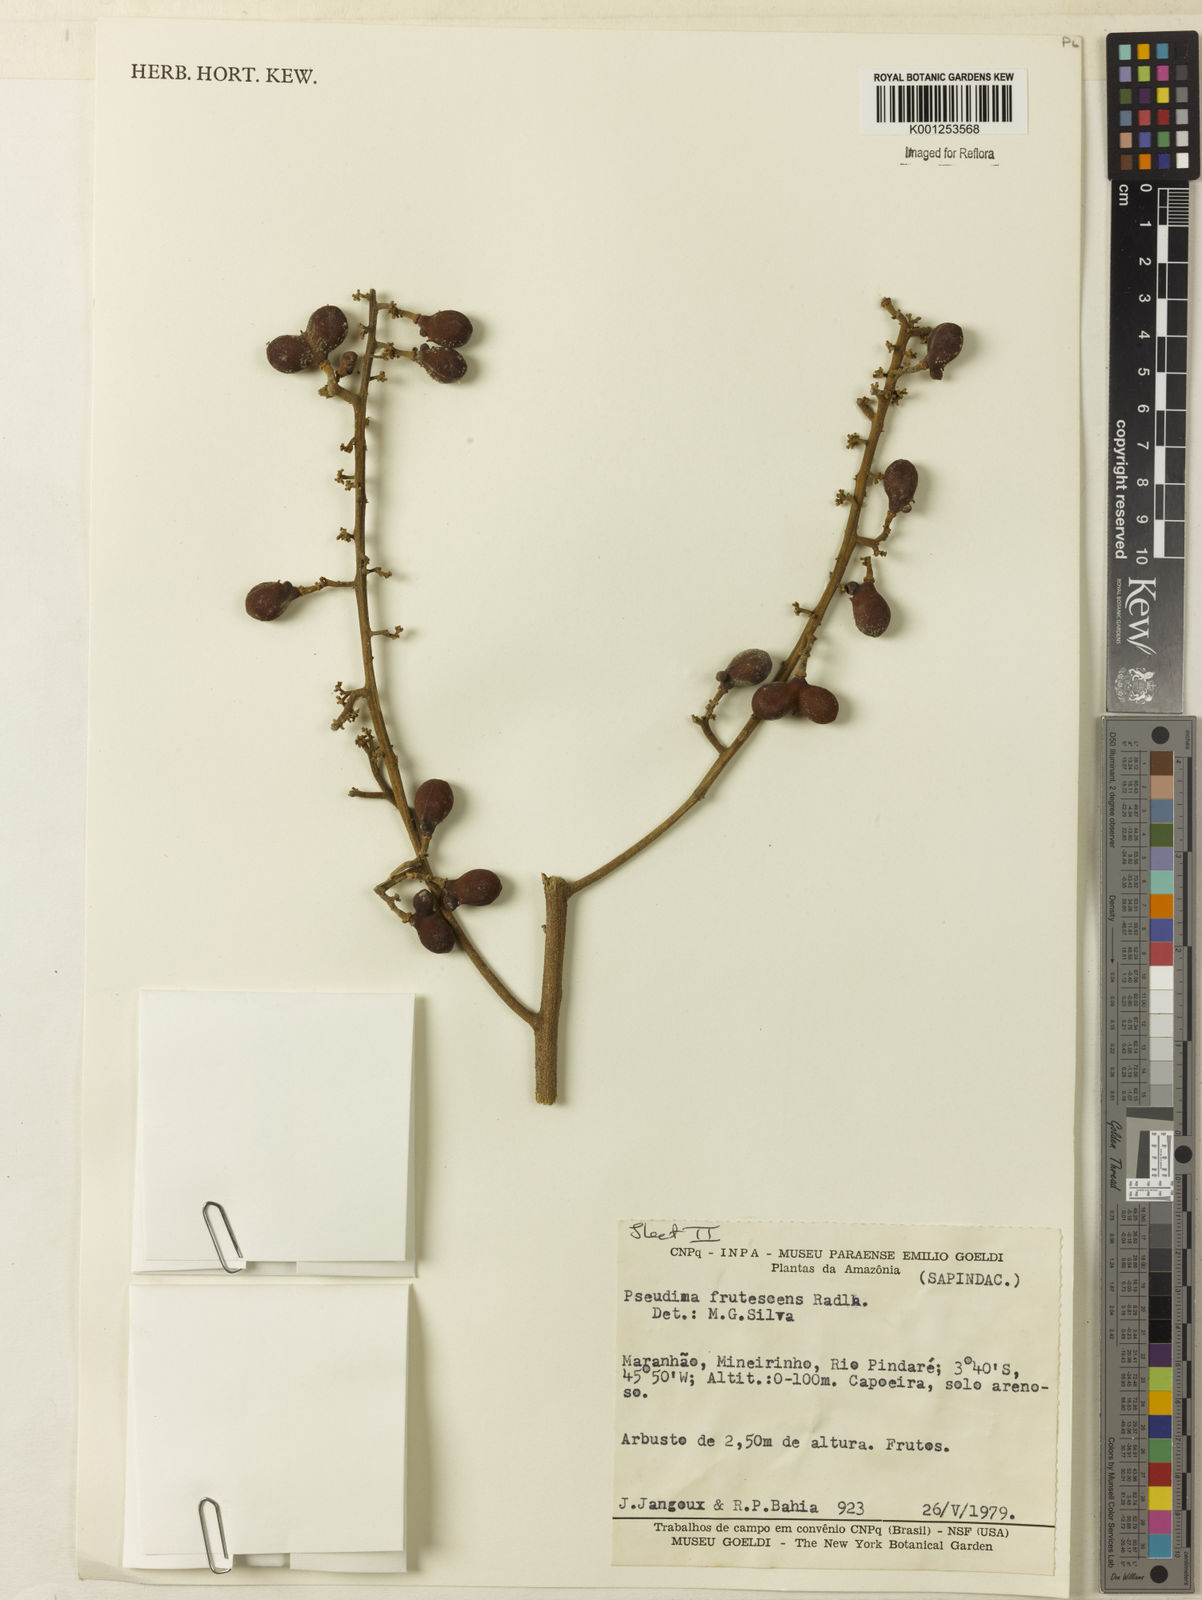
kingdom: Plantae
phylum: Tracheophyta
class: Magnoliopsida
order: Sapindales
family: Sapindaceae
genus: Pseudima
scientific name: Pseudima frutescens
